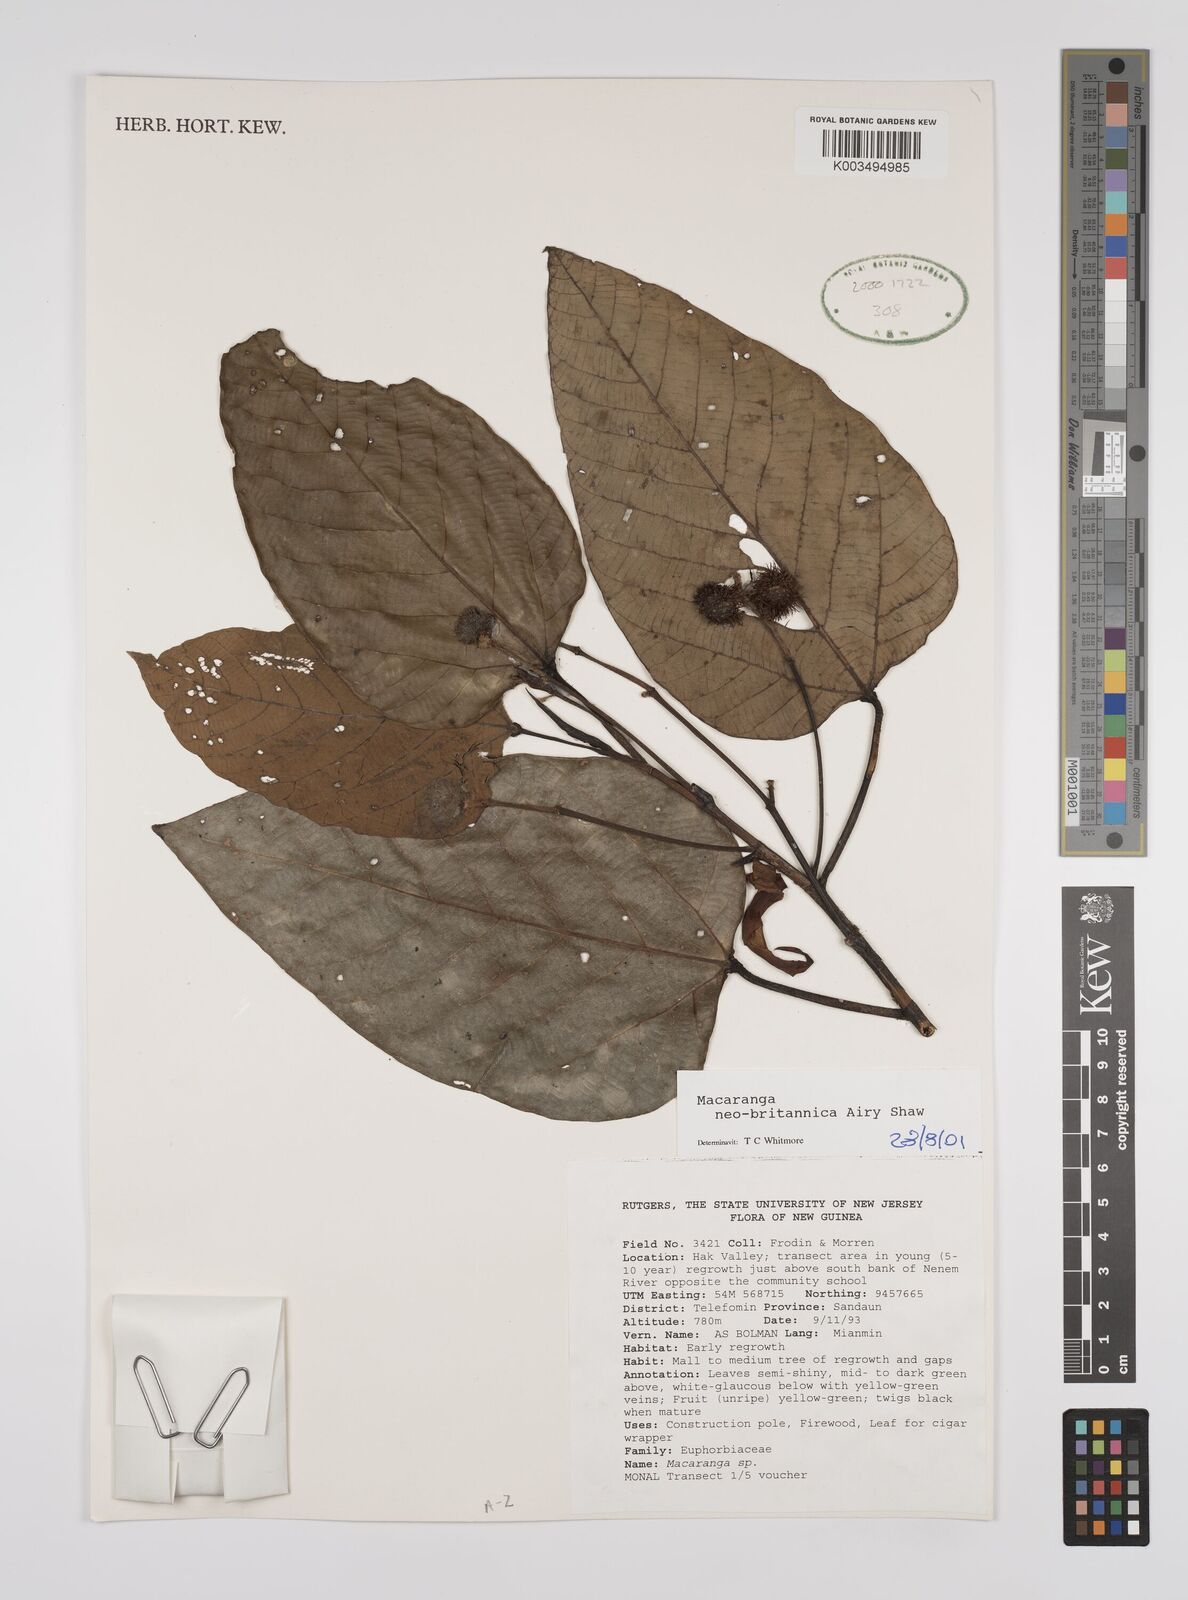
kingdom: Plantae
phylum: Tracheophyta
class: Magnoliopsida
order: Malpighiales
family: Euphorbiaceae
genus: Macaranga
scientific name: Macaranga neobritannica
